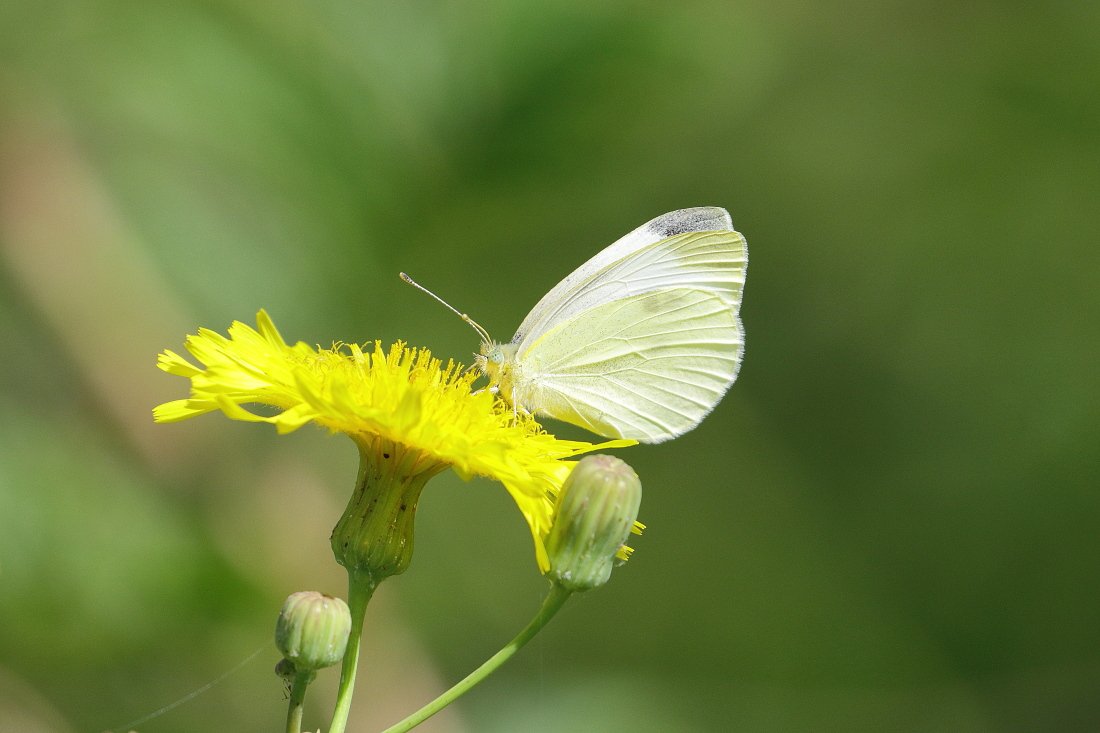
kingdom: Animalia
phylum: Arthropoda
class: Insecta
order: Lepidoptera
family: Pieridae
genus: Pieris
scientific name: Pieris rapae
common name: Cabbage White
